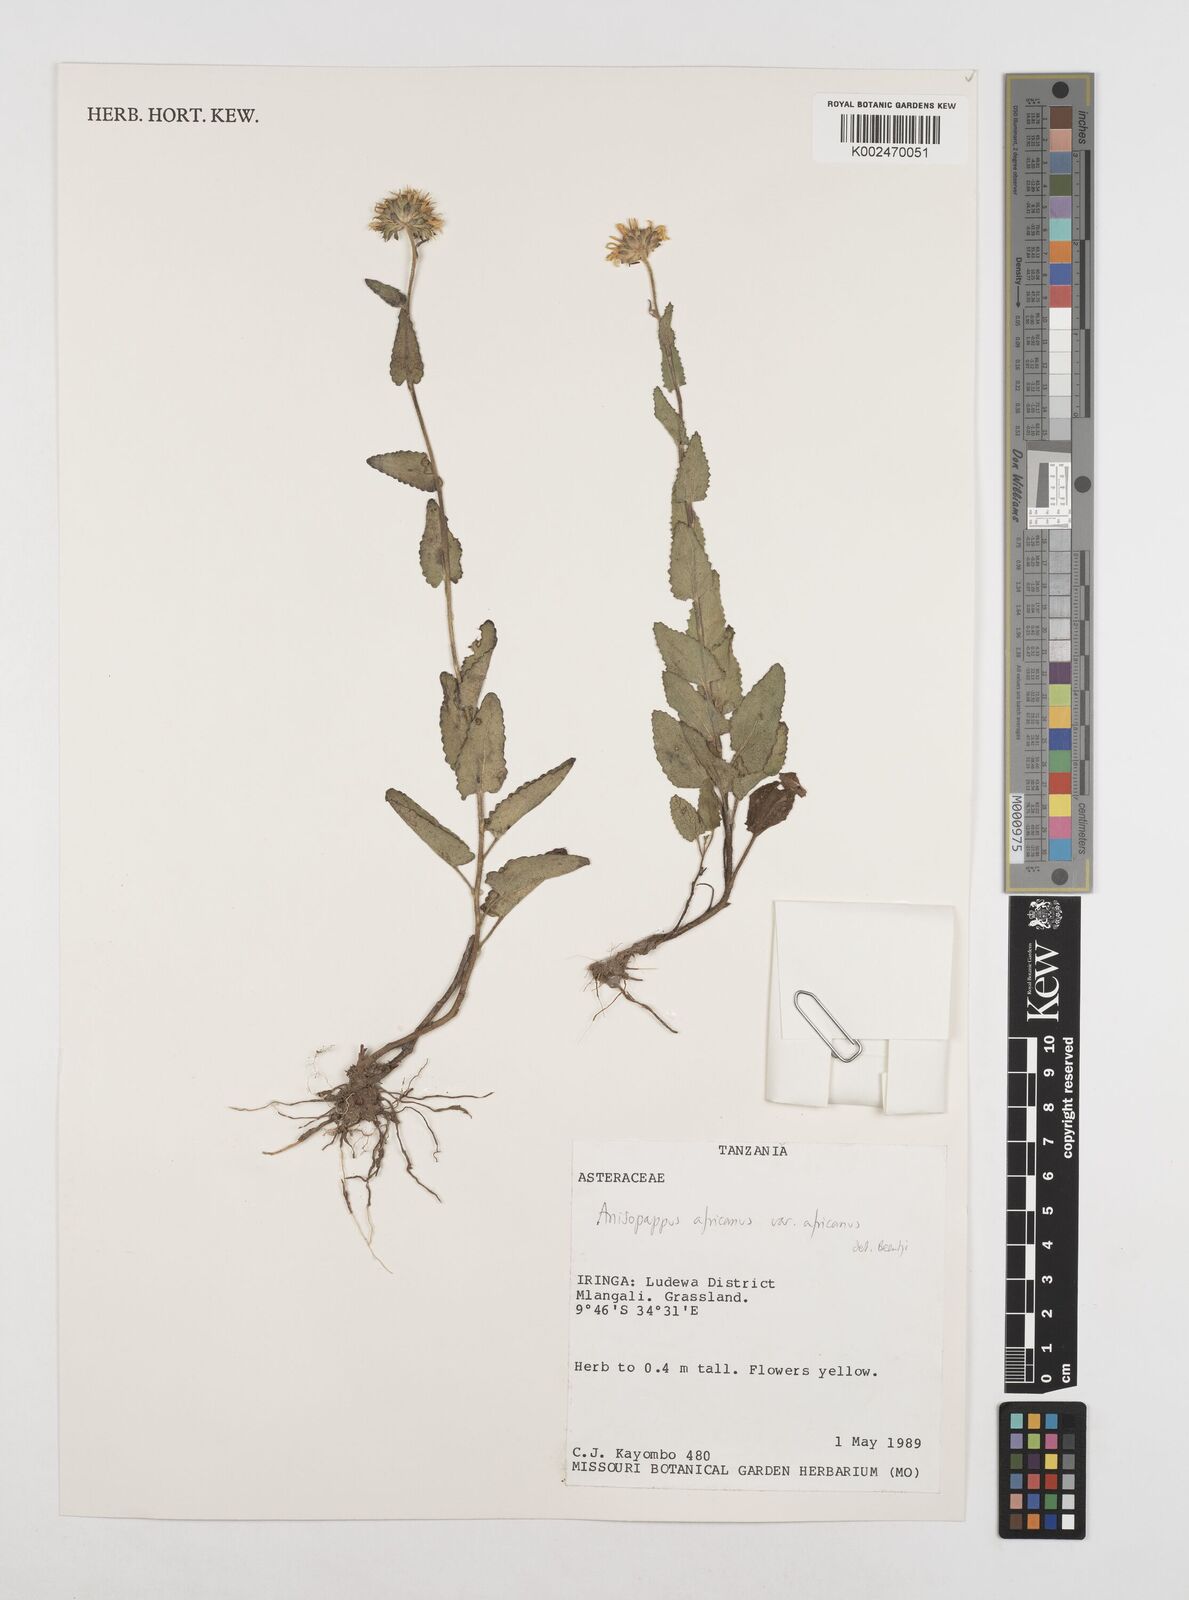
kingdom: Plantae
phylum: Tracheophyta
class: Magnoliopsida
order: Asterales
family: Asteraceae
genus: Anisopappus
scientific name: Anisopappus buchwaldii
